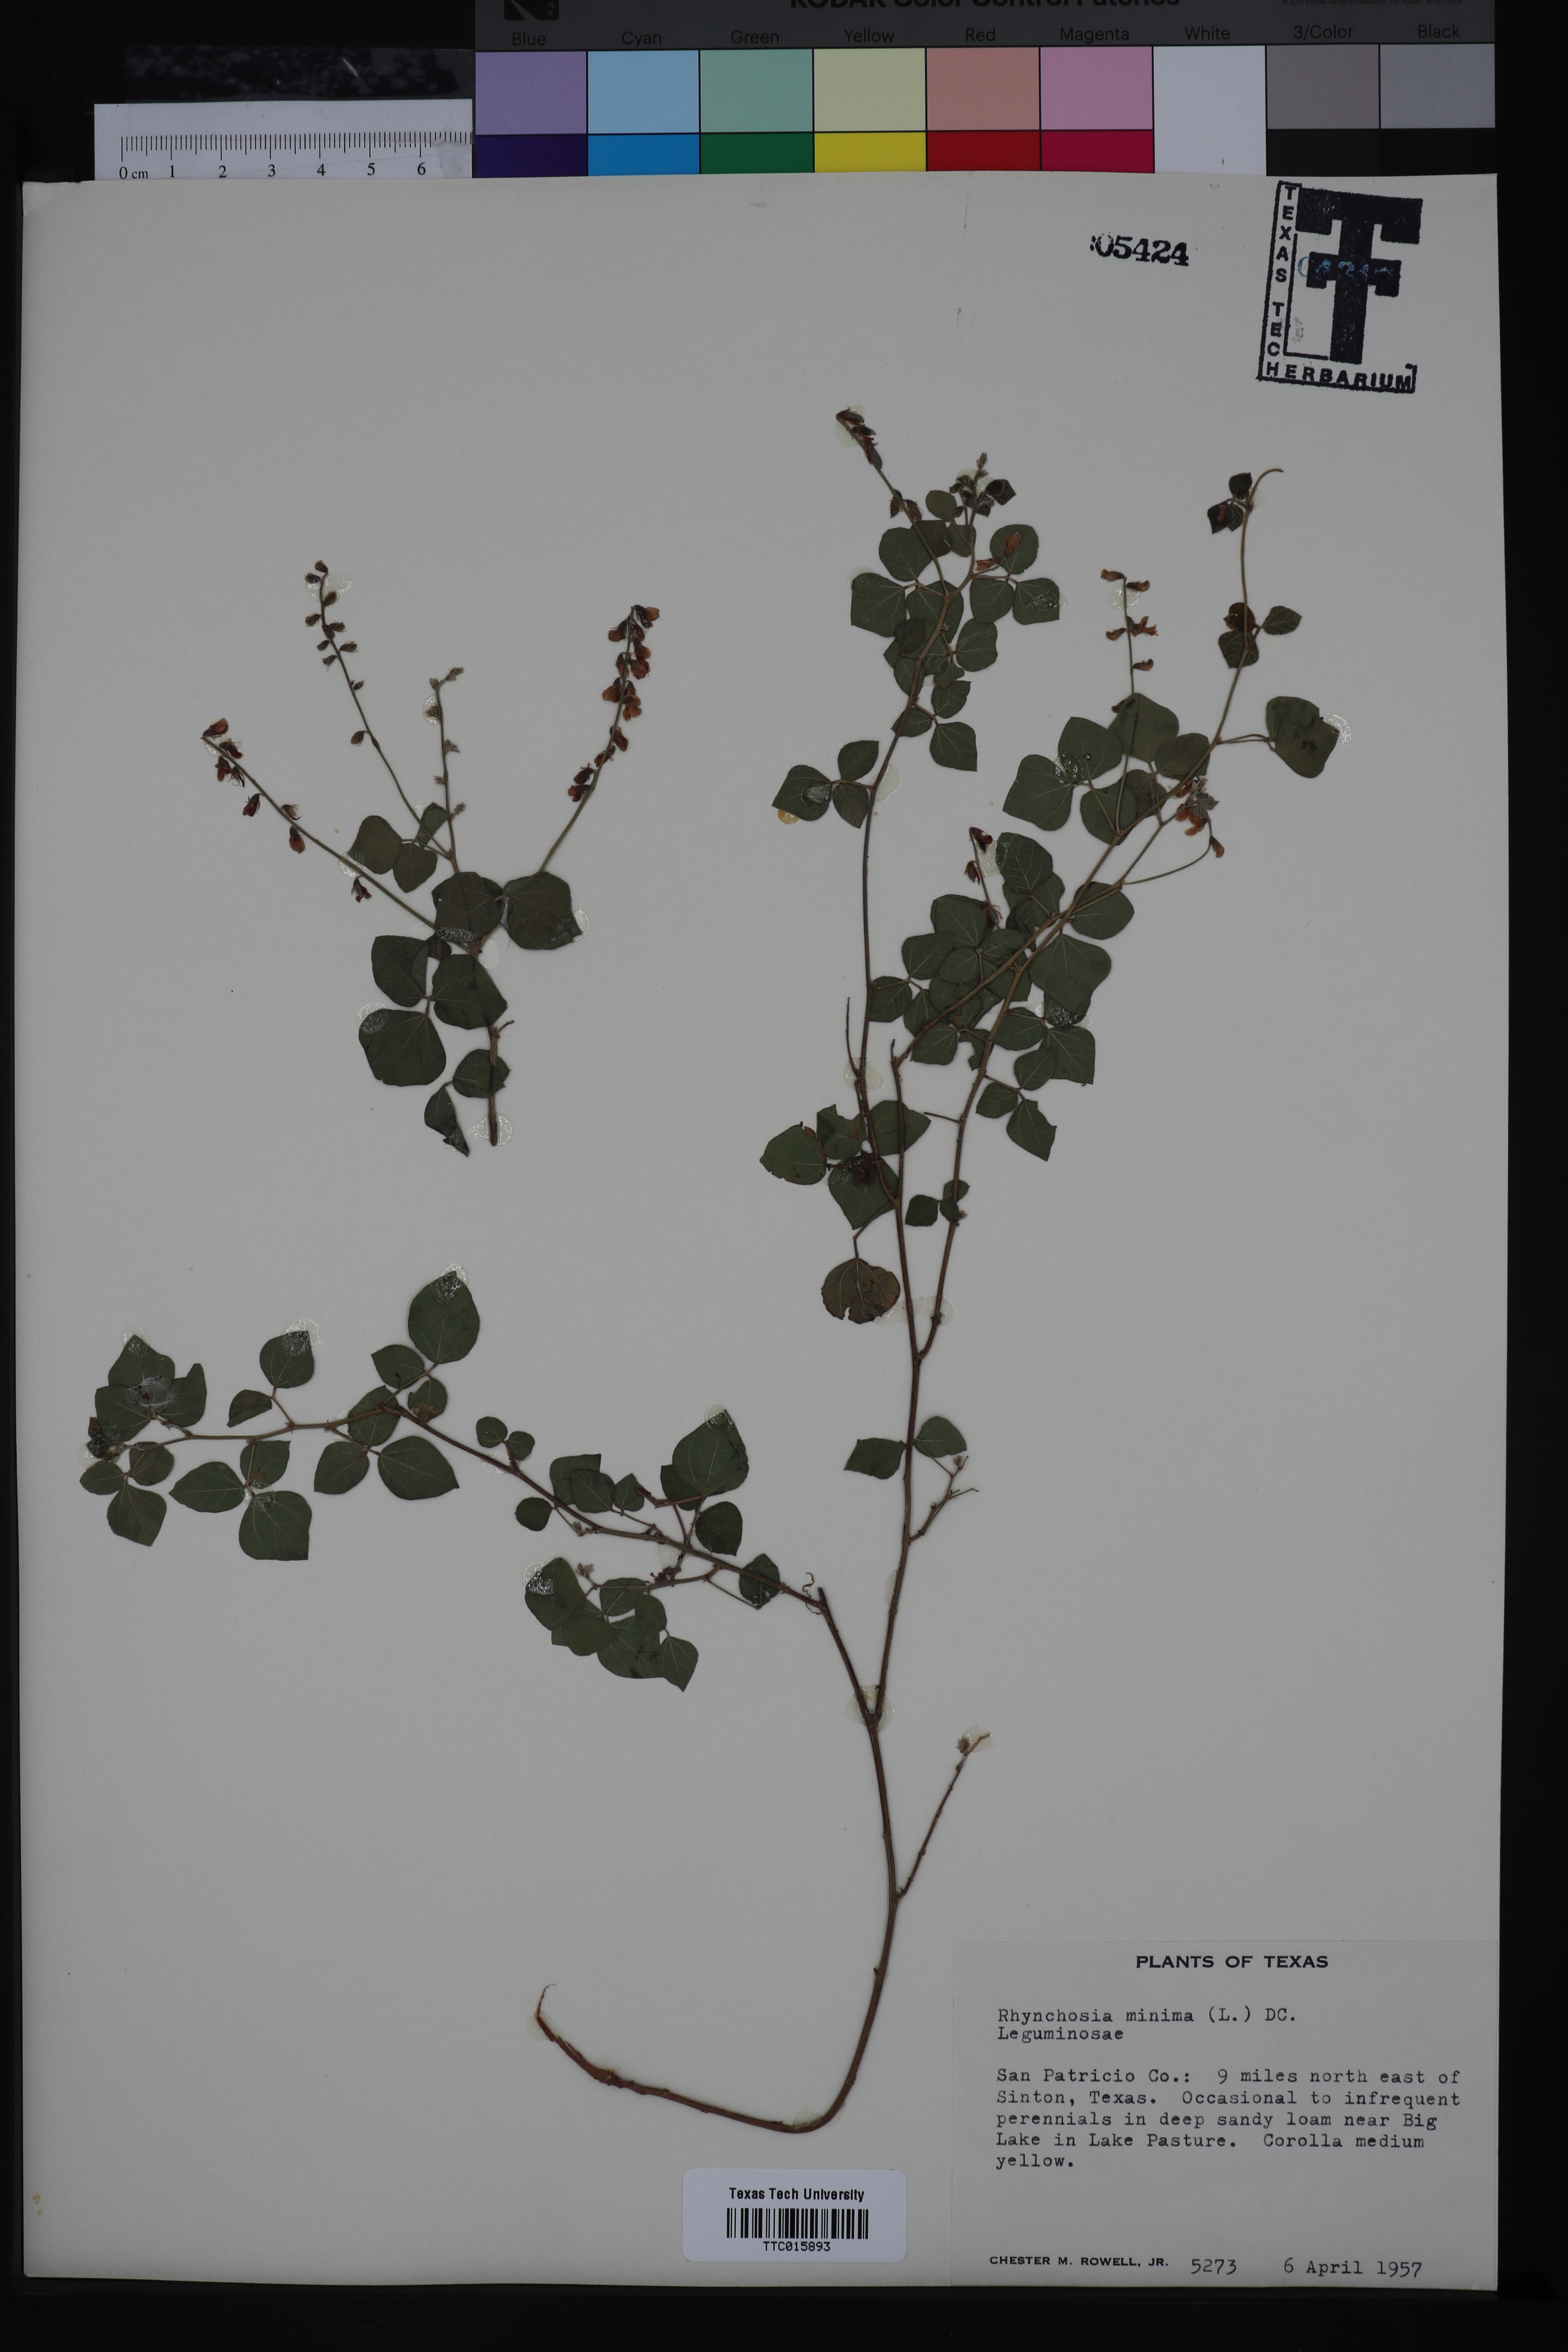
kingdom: Plantae
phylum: Tracheophyta
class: Magnoliopsida
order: Fabales
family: Fabaceae
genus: Rhynchosia
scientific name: Rhynchosia minima
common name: Least snoutbean
